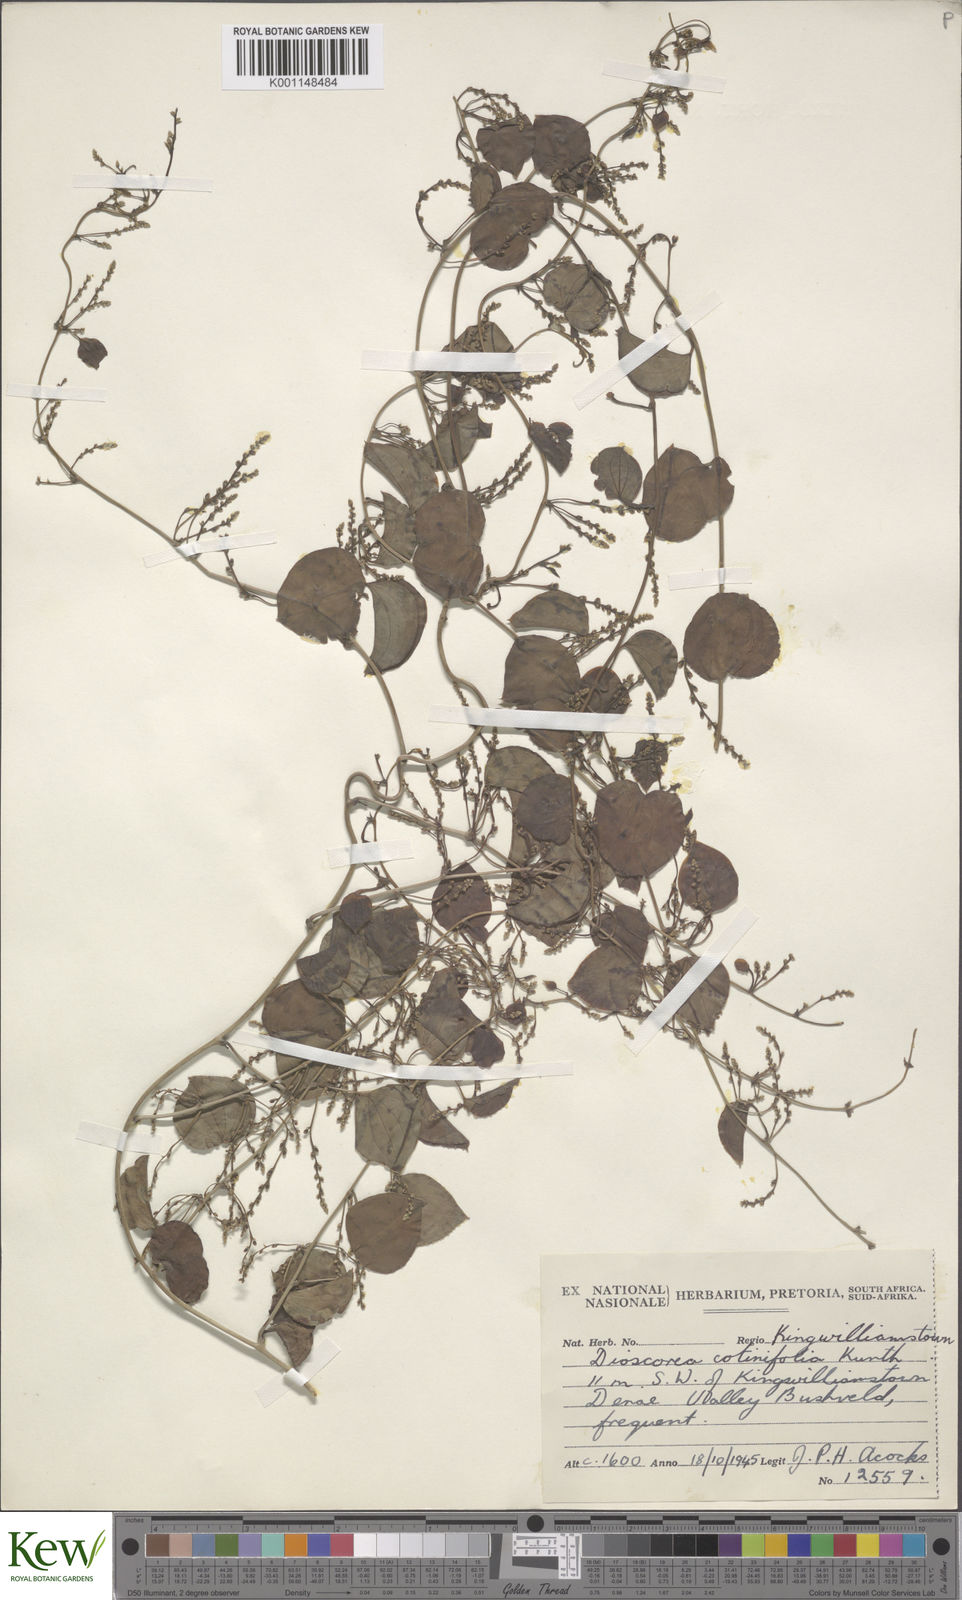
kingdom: Plantae
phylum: Tracheophyta
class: Liliopsida
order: Dioscoreales
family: Dioscoreaceae
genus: Dioscorea
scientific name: Dioscorea cotinifolia
